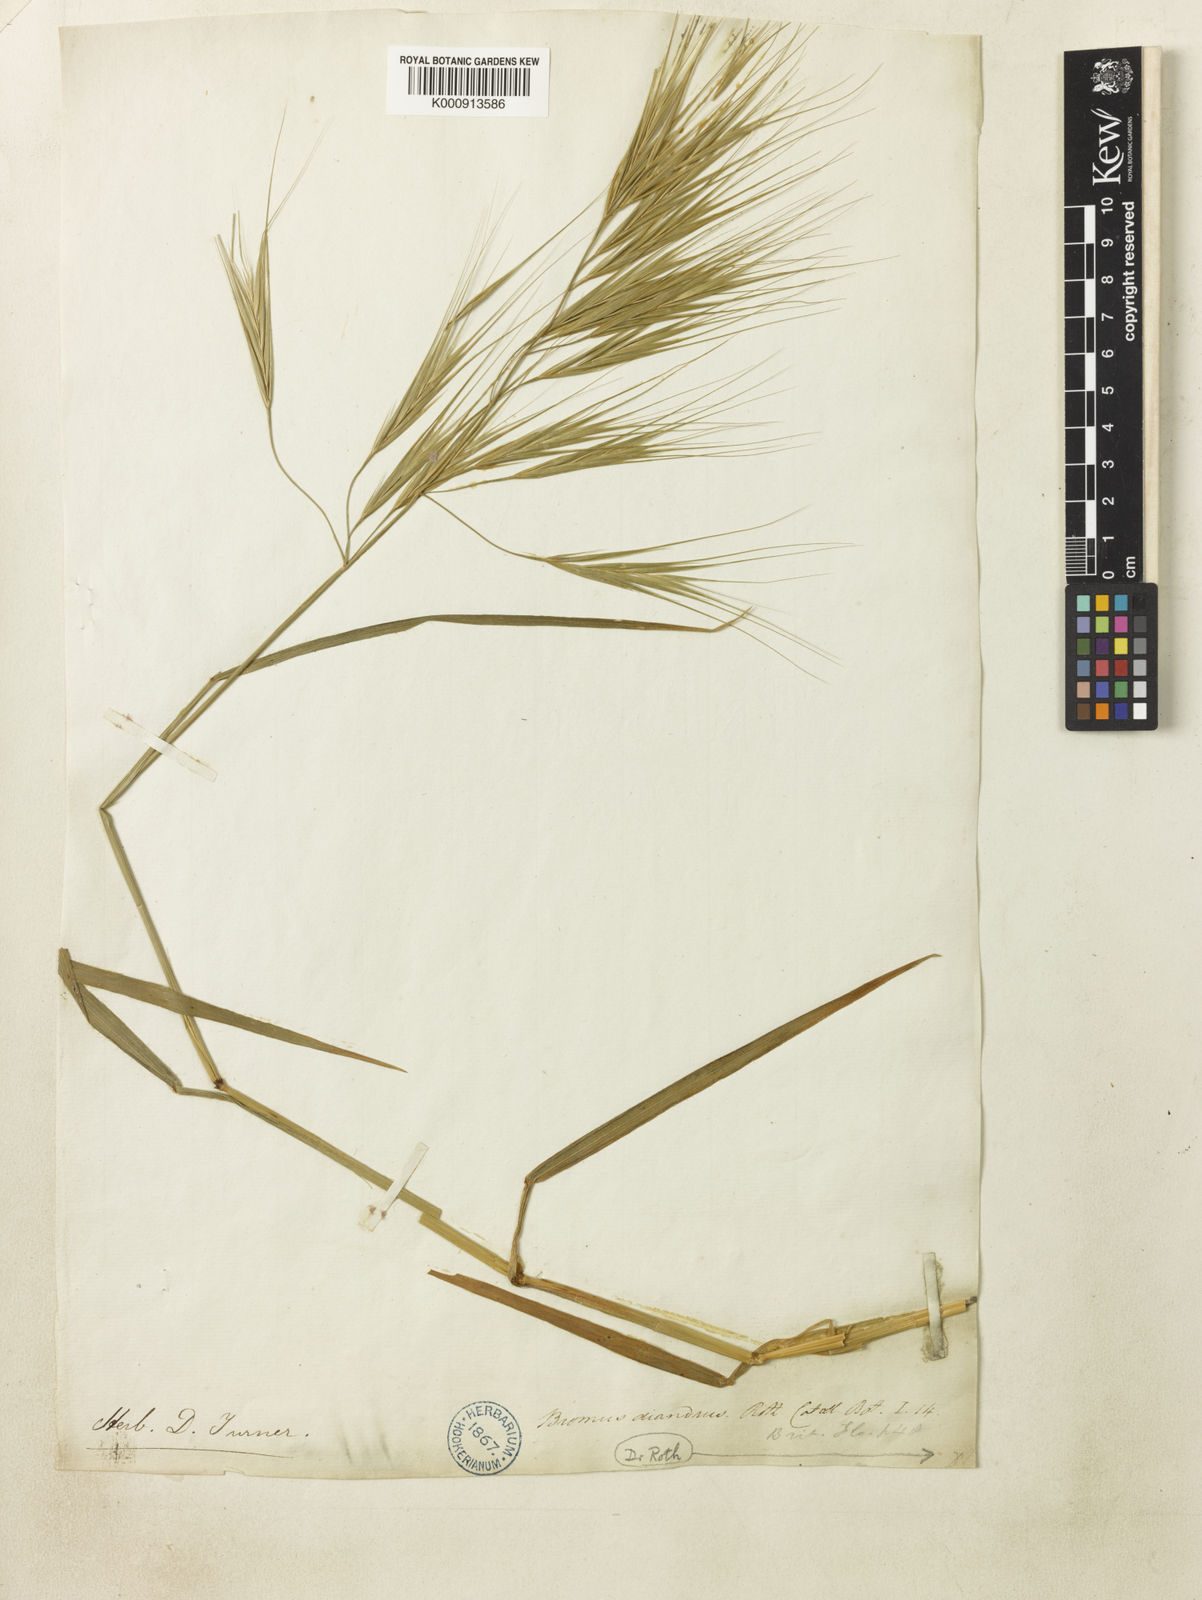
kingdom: Plantae
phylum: Tracheophyta
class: Liliopsida
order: Poales
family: Cyperaceae
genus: Cyperus
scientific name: Cyperus retrorsus
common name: Pinebarren flat sedge
